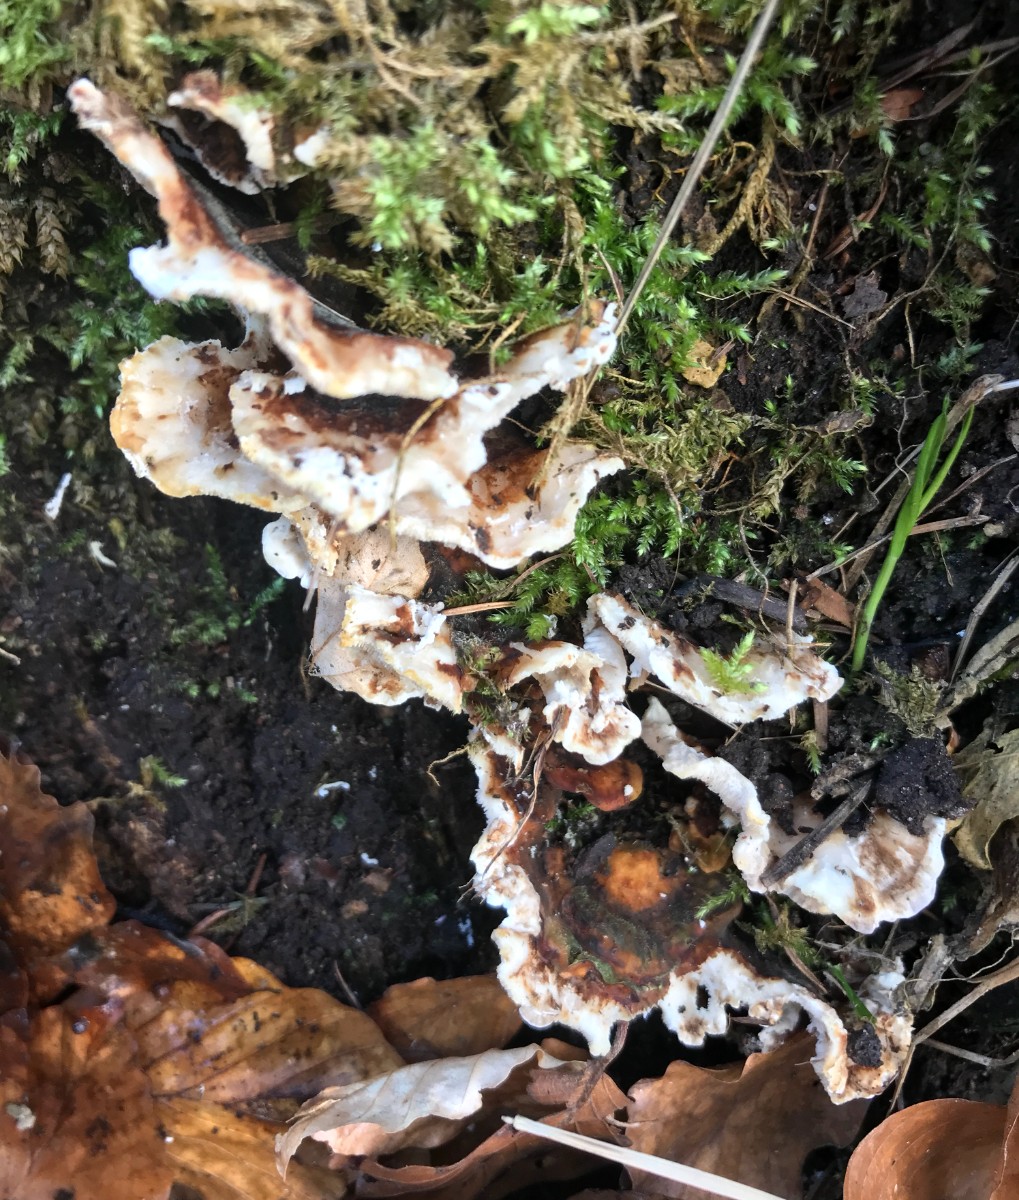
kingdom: Fungi
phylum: Basidiomycota
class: Agaricomycetes
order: Russulales
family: Bondarzewiaceae
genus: Heterobasidion
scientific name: Heterobasidion annosum
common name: almindelig rodfordærver
